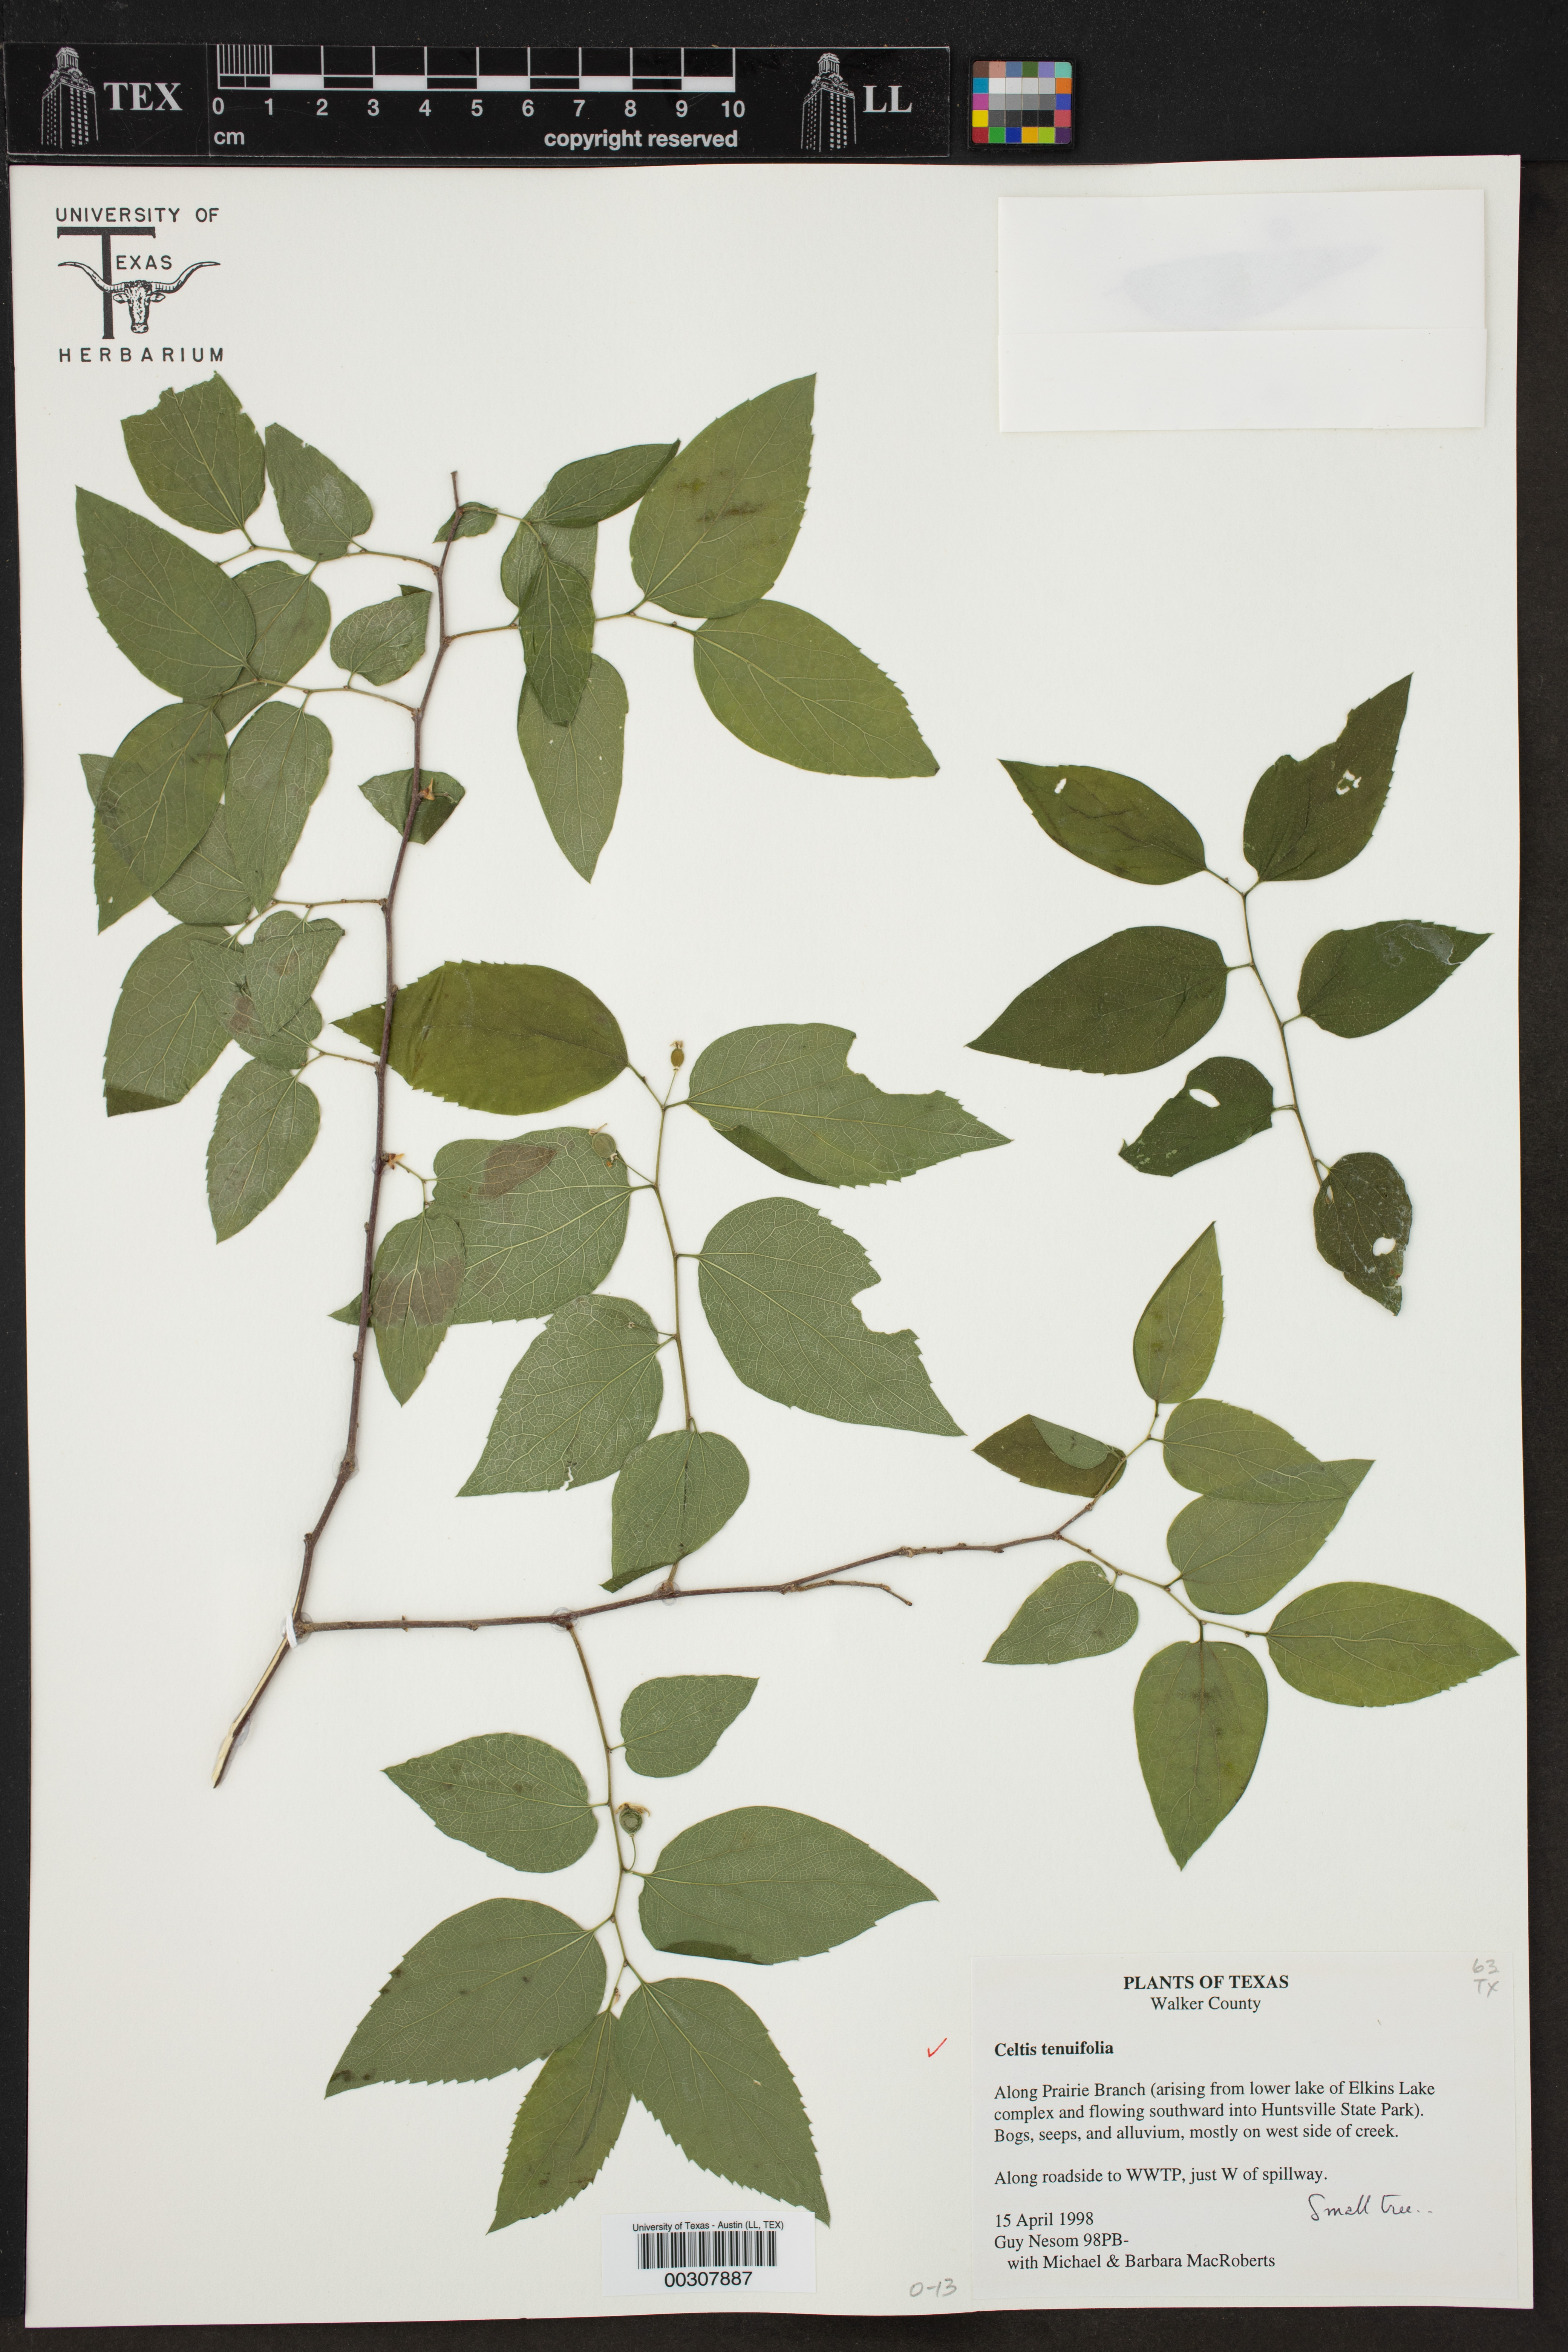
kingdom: Plantae
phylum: Tracheophyta
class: Magnoliopsida
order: Rosales
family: Cannabaceae
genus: Celtis
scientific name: Celtis tenuifolia
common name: Georgia hackberry
